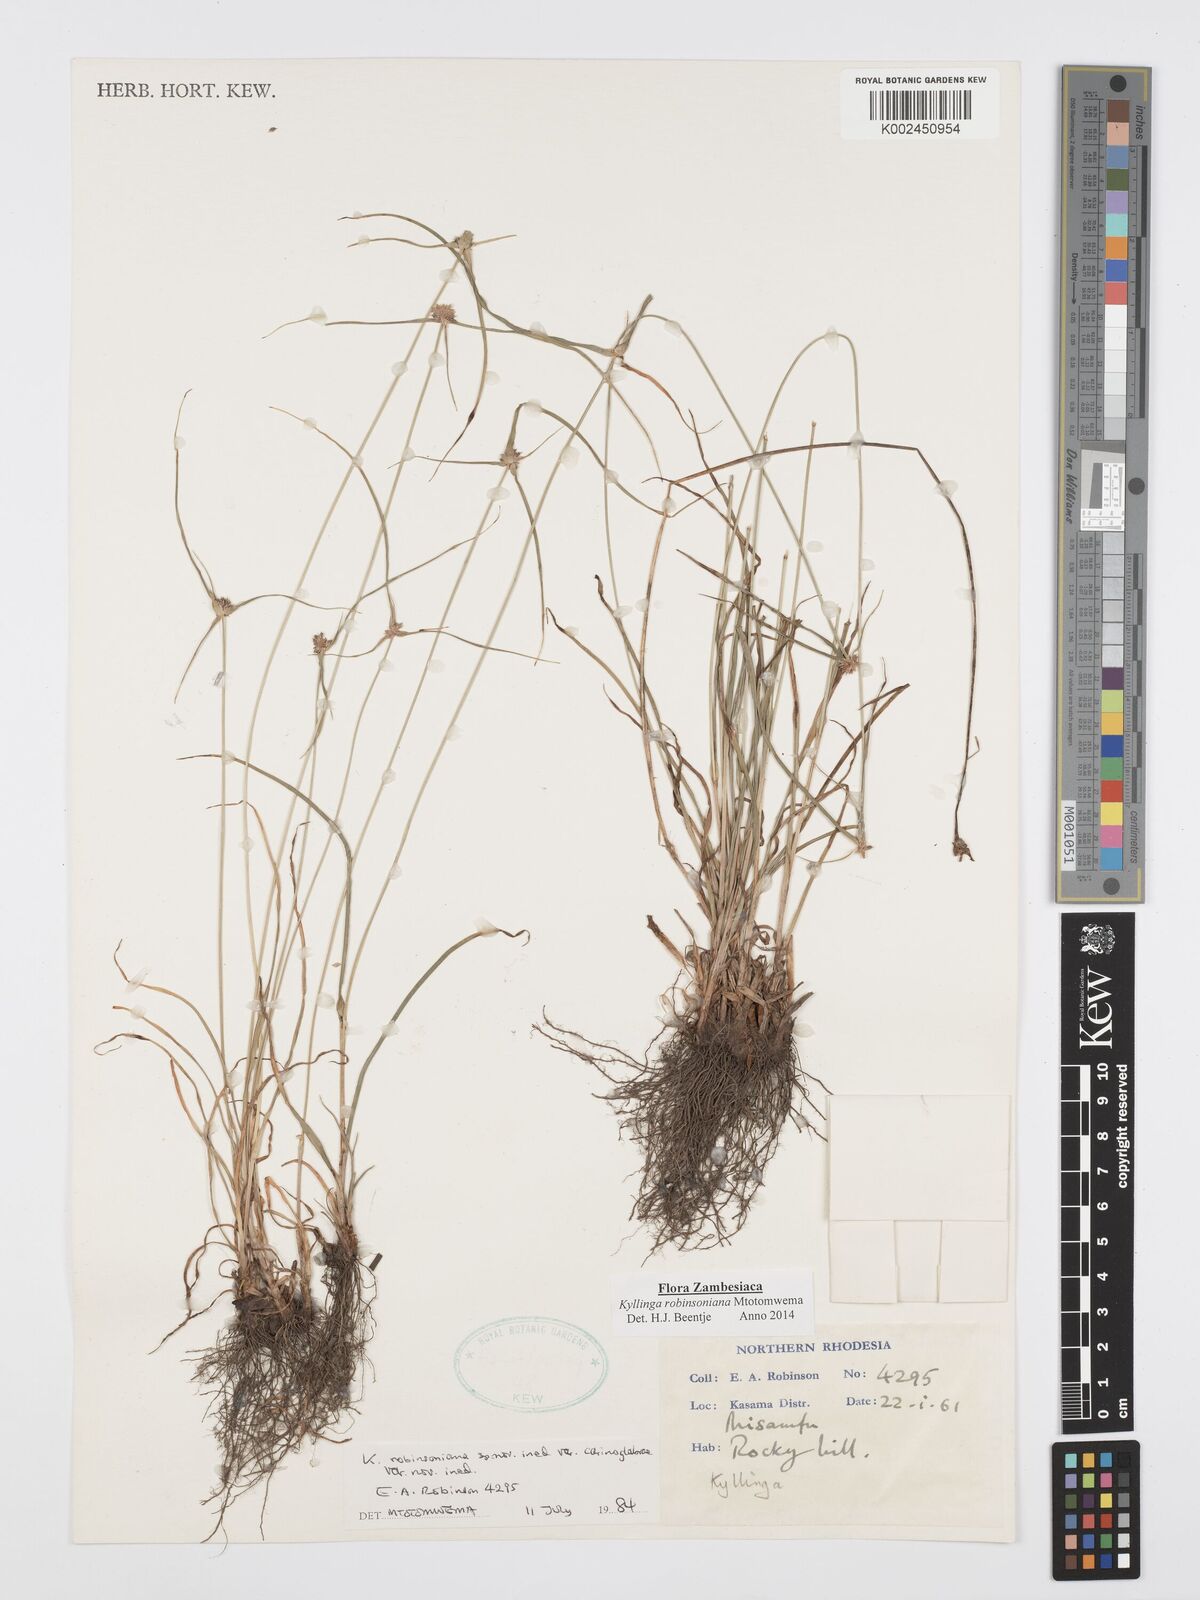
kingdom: Plantae
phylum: Tracheophyta
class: Liliopsida
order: Poales
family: Cyperaceae
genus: Cyperus
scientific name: Cyperus robinsonianus
